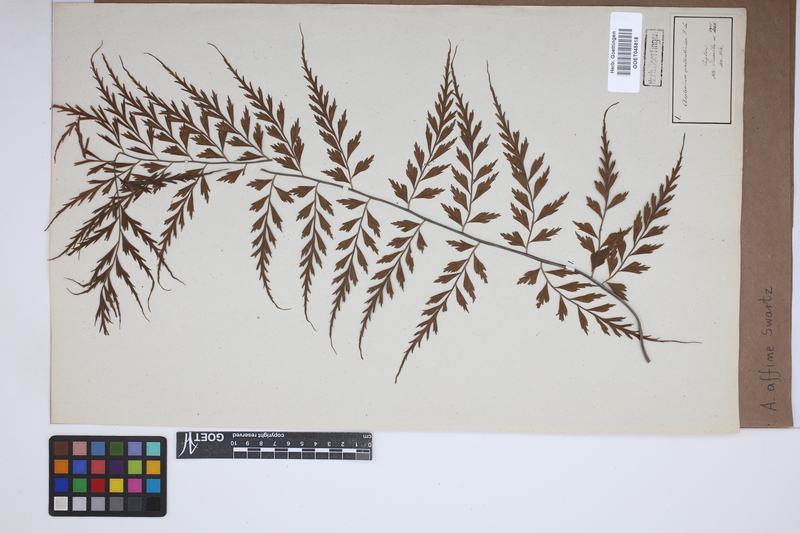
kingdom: Plantae
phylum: Tracheophyta
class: Polypodiopsida
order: Polypodiales
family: Aspleniaceae
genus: Asplenium
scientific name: Asplenium affine
